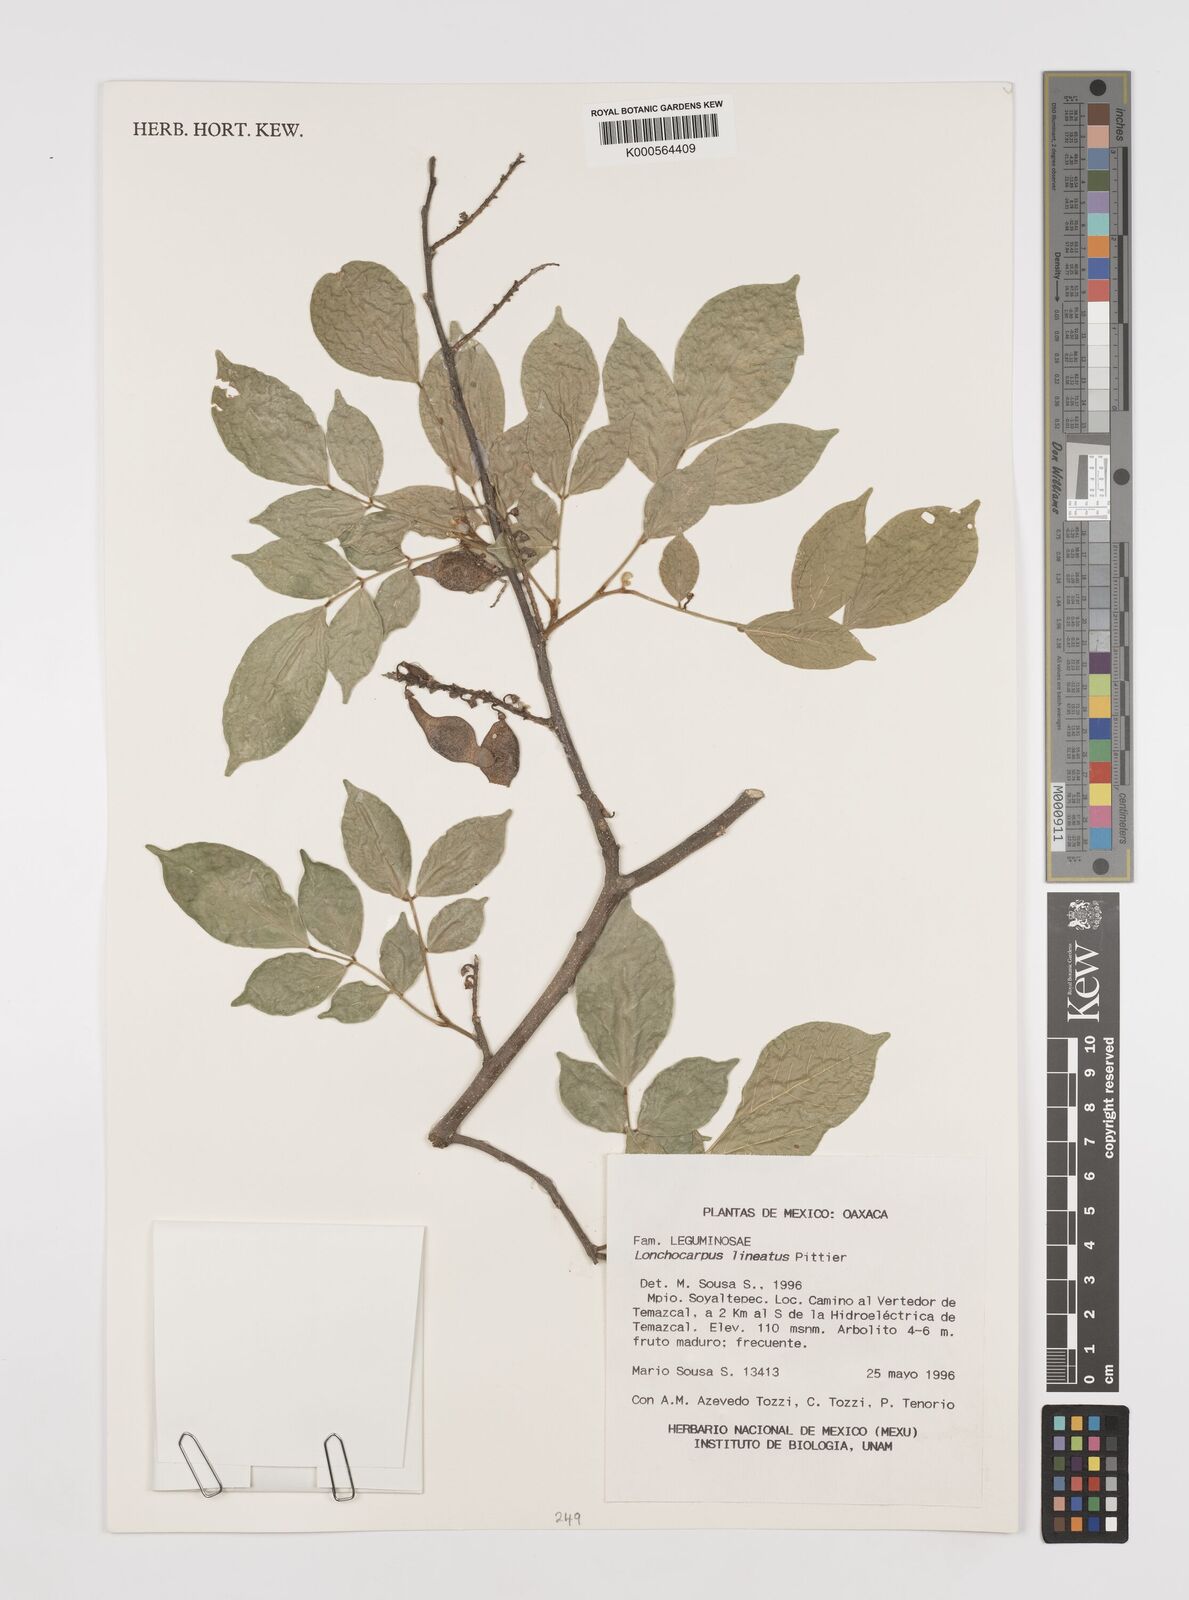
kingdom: Plantae
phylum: Tracheophyta
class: Magnoliopsida
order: Fabales
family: Fabaceae
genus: Lonchocarpus
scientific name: Lonchocarpus lineatus
